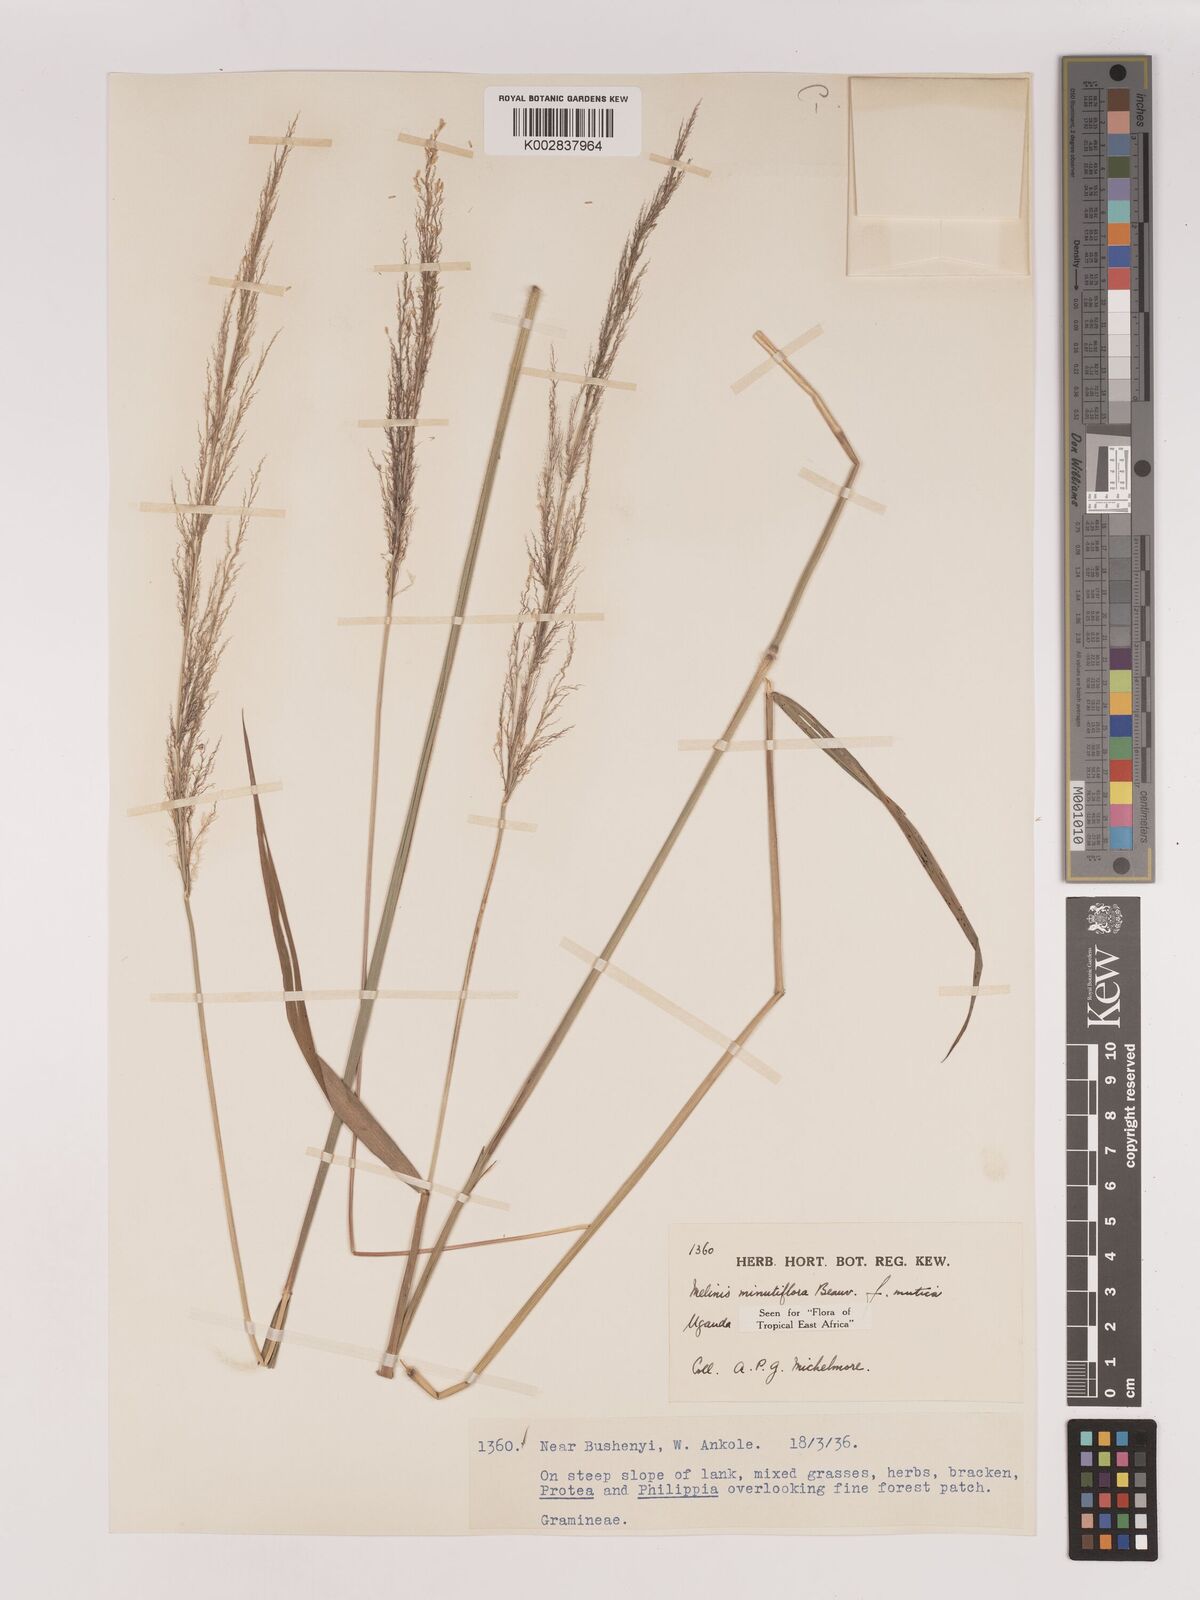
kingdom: Plantae
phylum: Tracheophyta
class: Liliopsida
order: Poales
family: Poaceae
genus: Melinis
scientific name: Melinis minutiflora
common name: Molassesgrass
